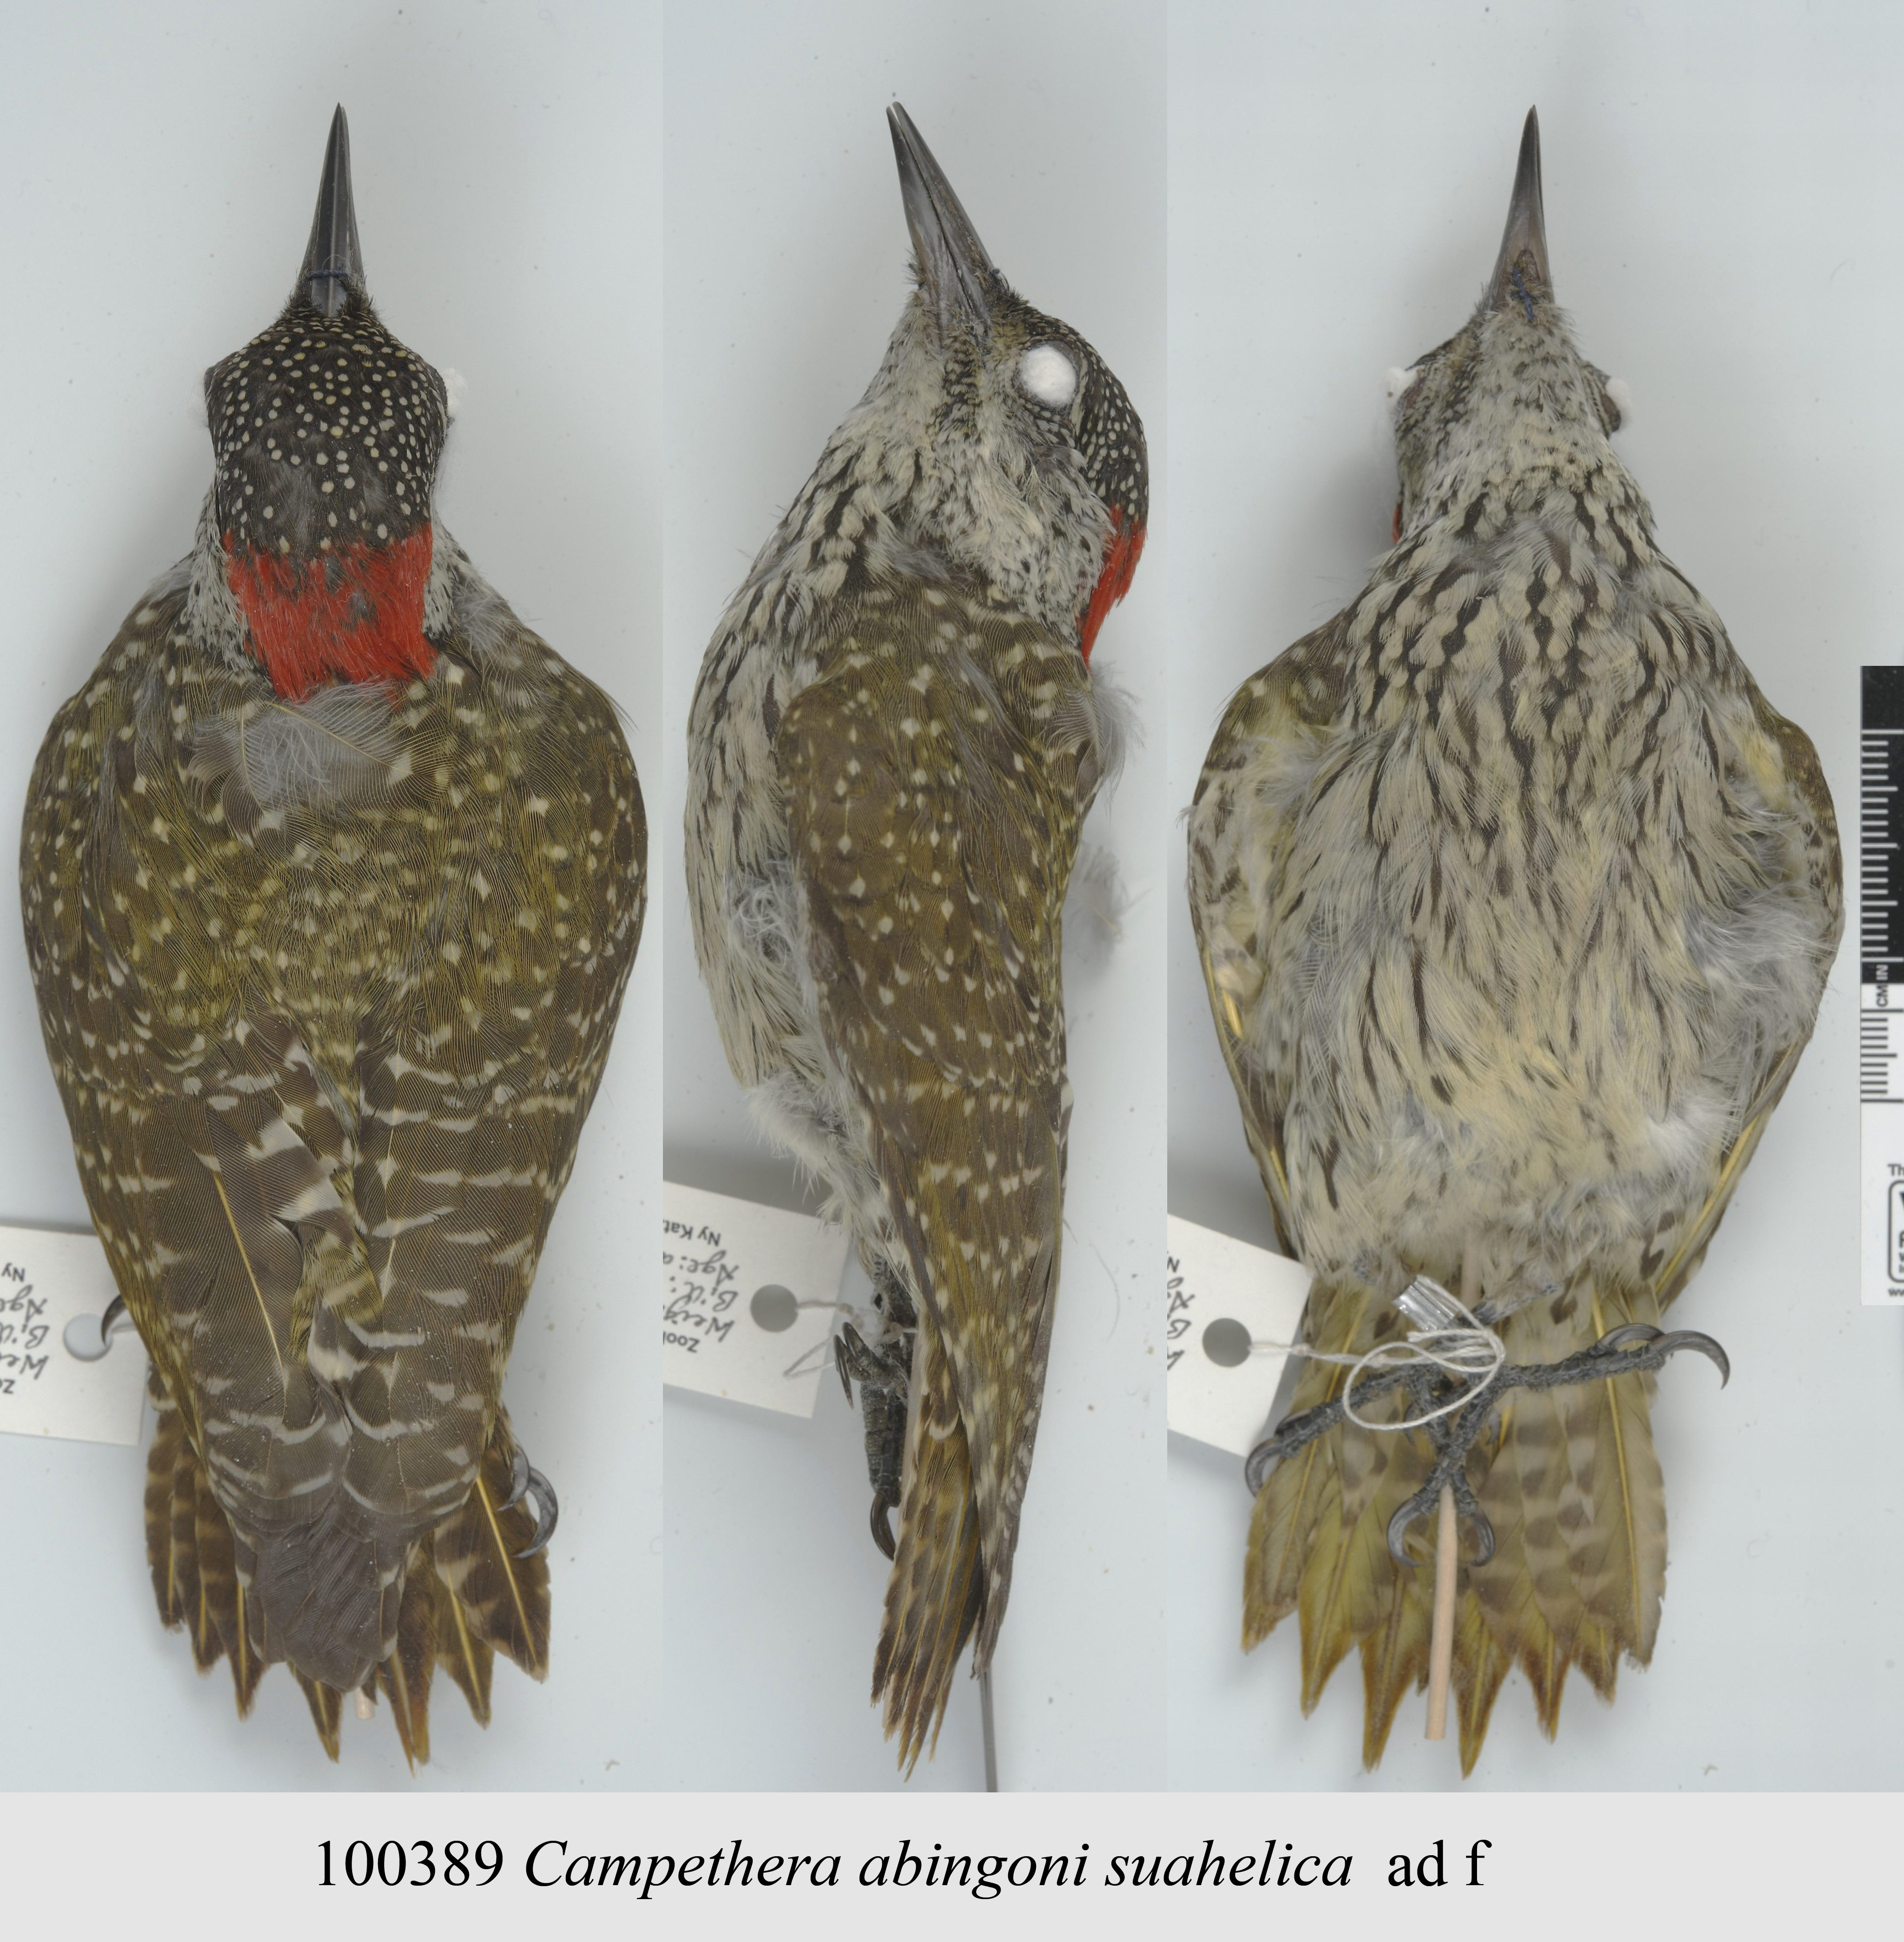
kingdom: Animalia
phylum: Chordata
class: Aves
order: Piciformes
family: Picidae
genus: Campethera
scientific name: Campethera abingoni
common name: Golden-tailed woodpecker
